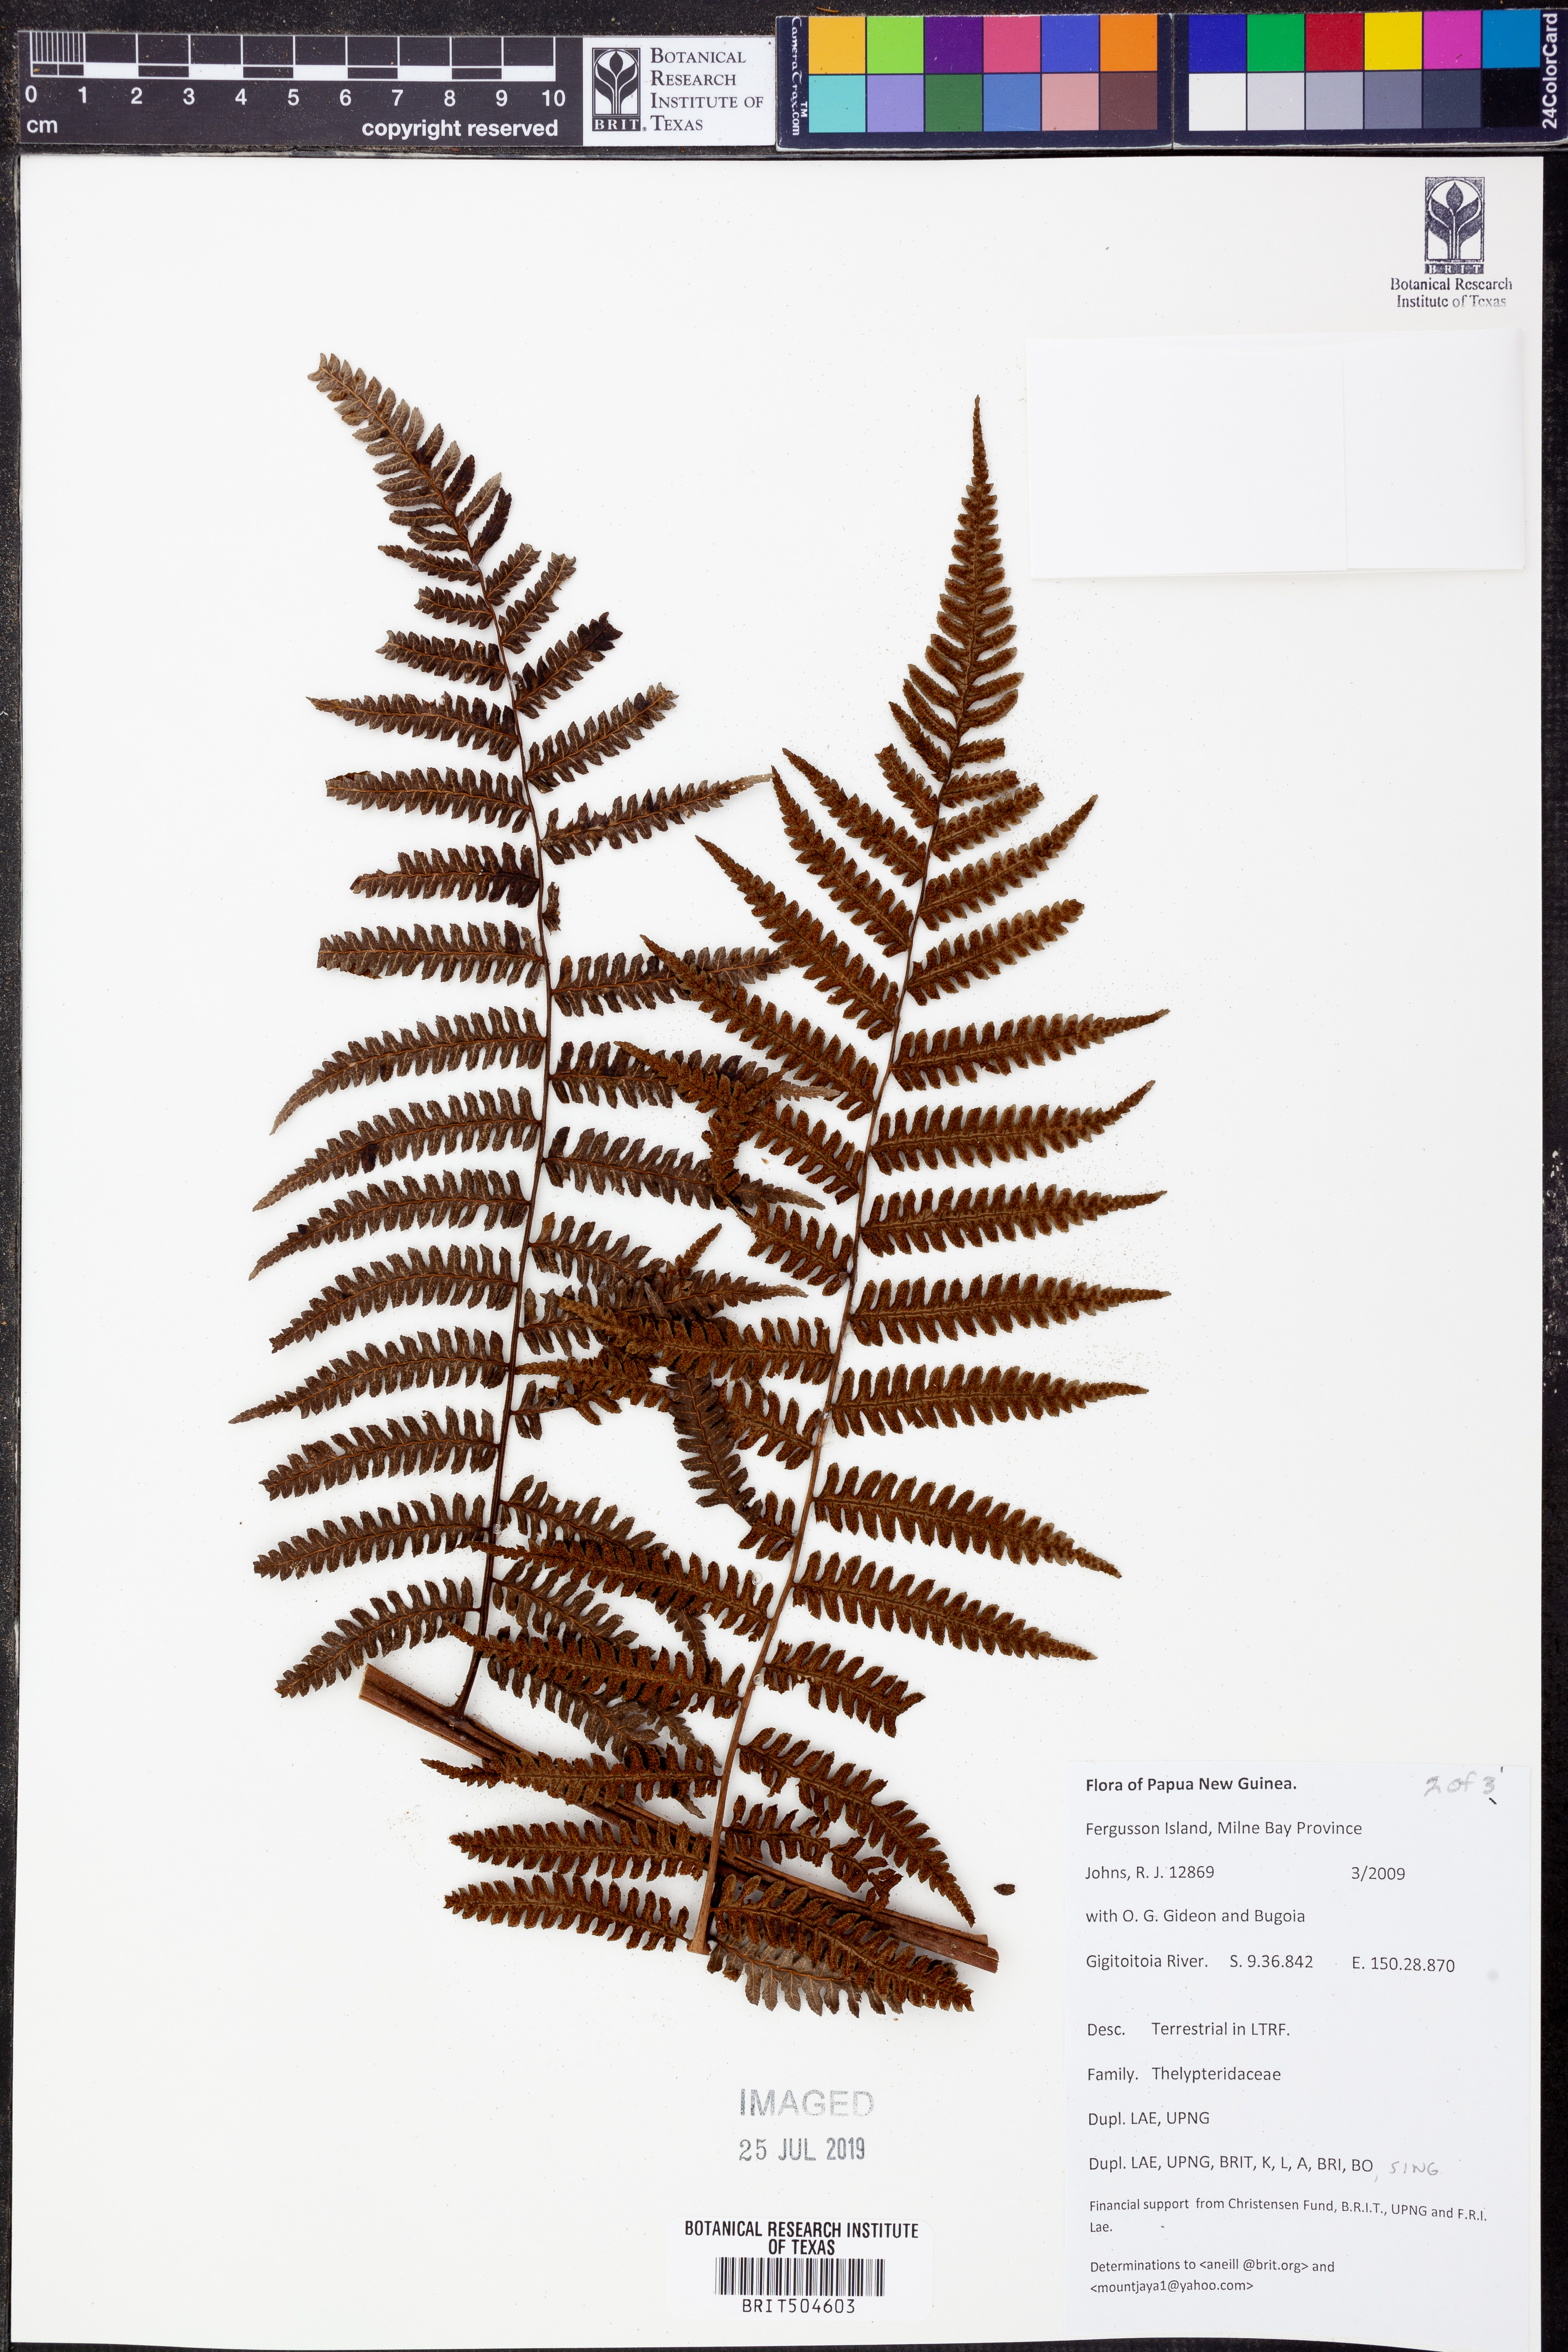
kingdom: Plantae
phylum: Tracheophyta
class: Polypodiopsida
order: Polypodiales
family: Thelypteridaceae
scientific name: Thelypteridaceae
